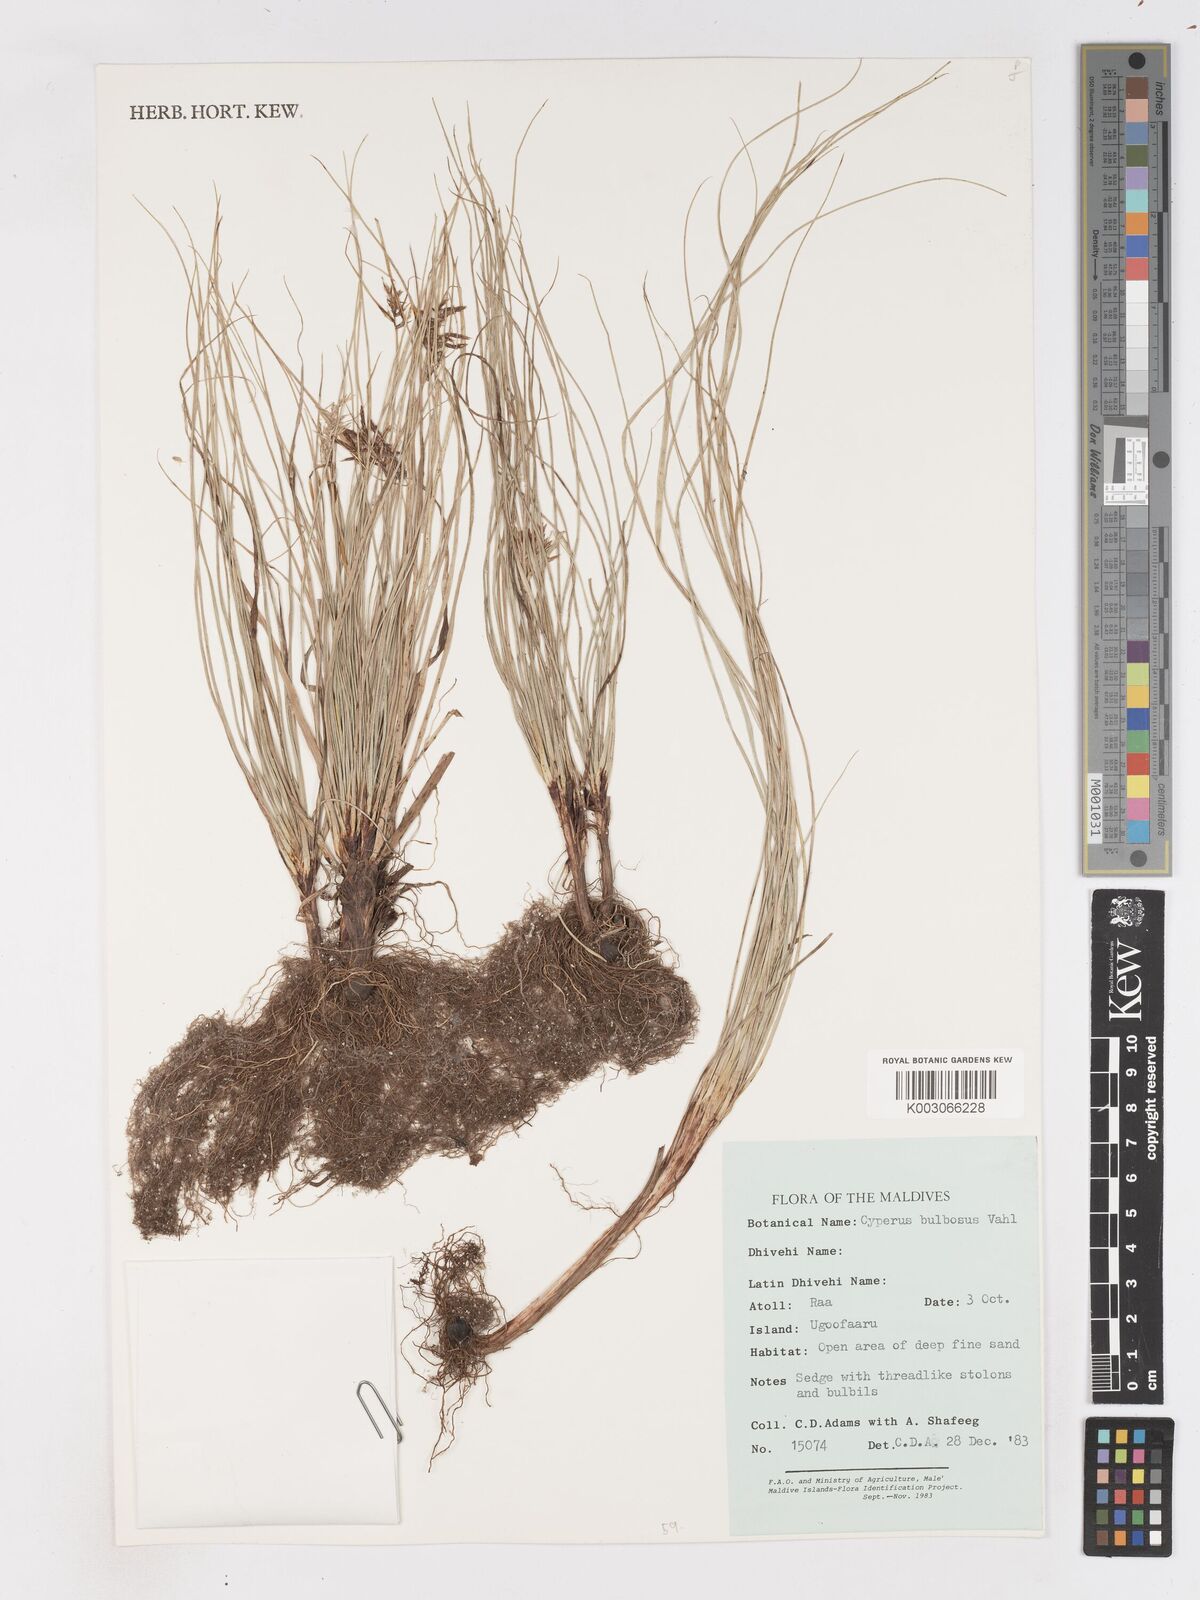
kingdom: Plantae
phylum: Tracheophyta
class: Liliopsida
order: Poales
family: Cyperaceae
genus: Cyperus
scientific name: Cyperus bulbosus
